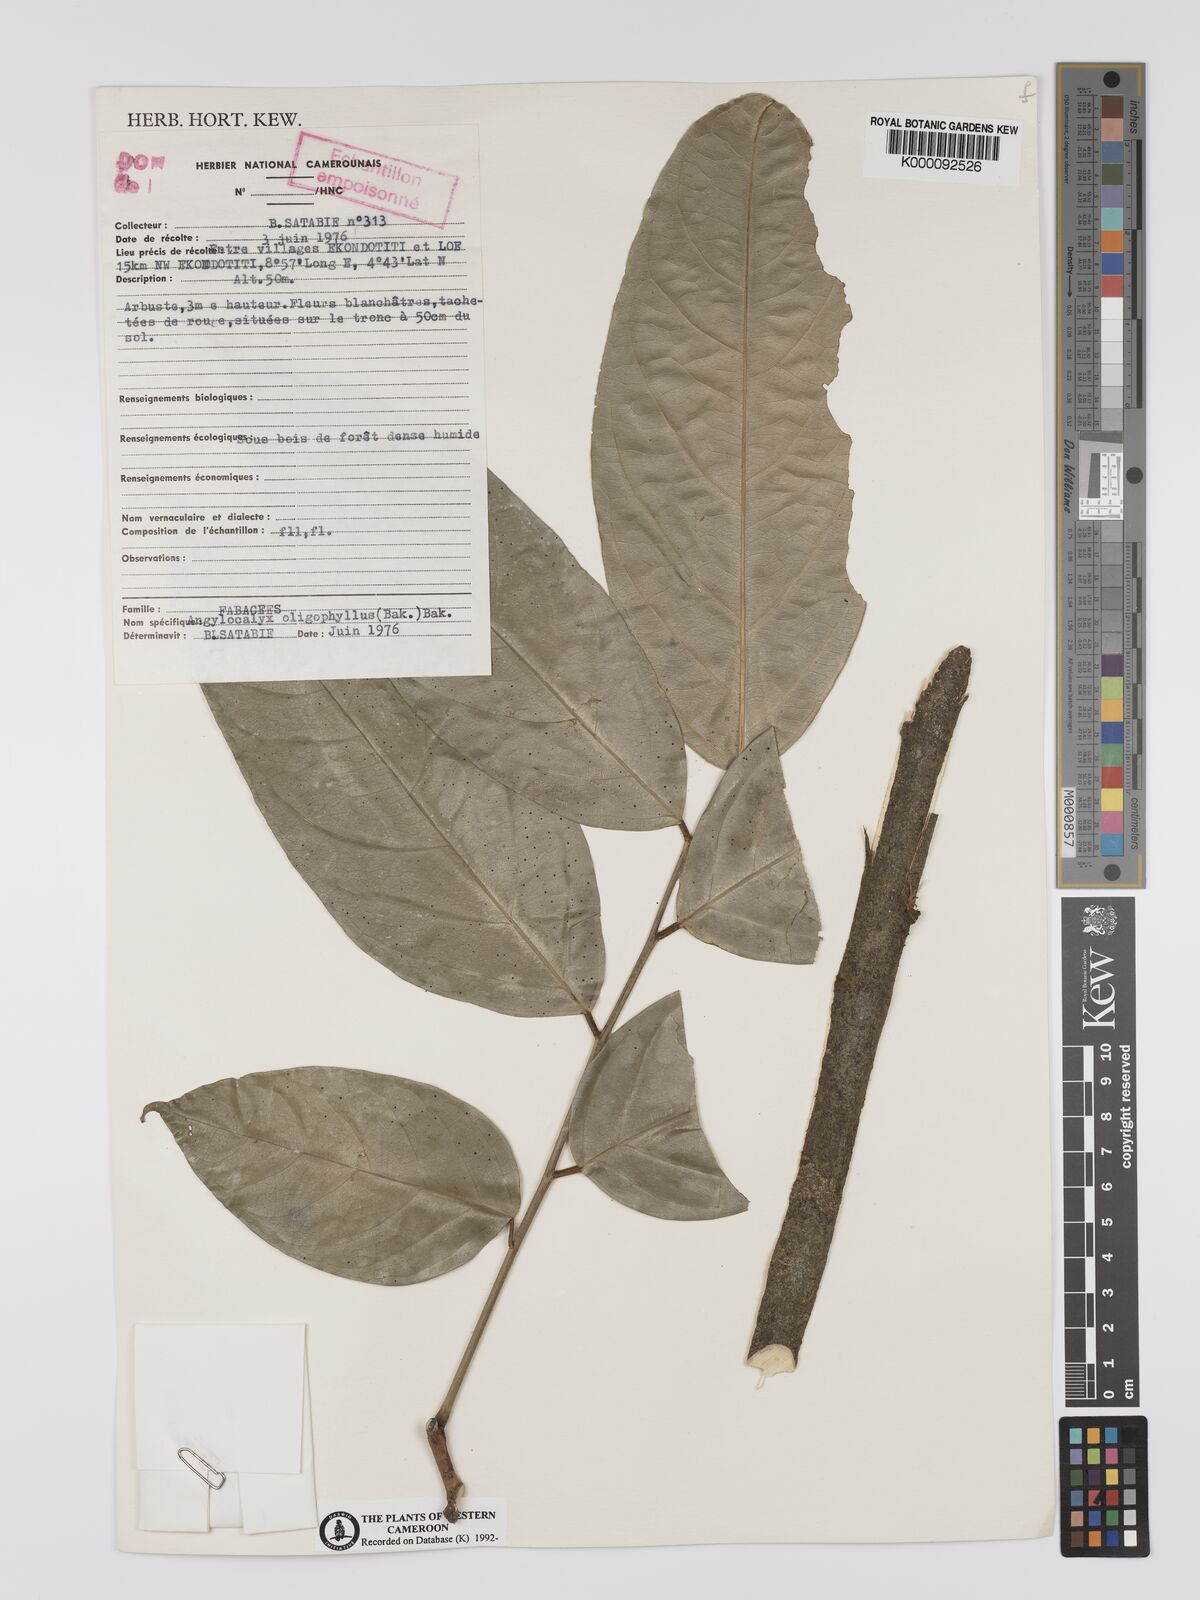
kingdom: Plantae
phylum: Tracheophyta
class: Magnoliopsida
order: Fabales
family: Fabaceae
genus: Angylocalyx
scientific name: Angylocalyx oligophyllus
